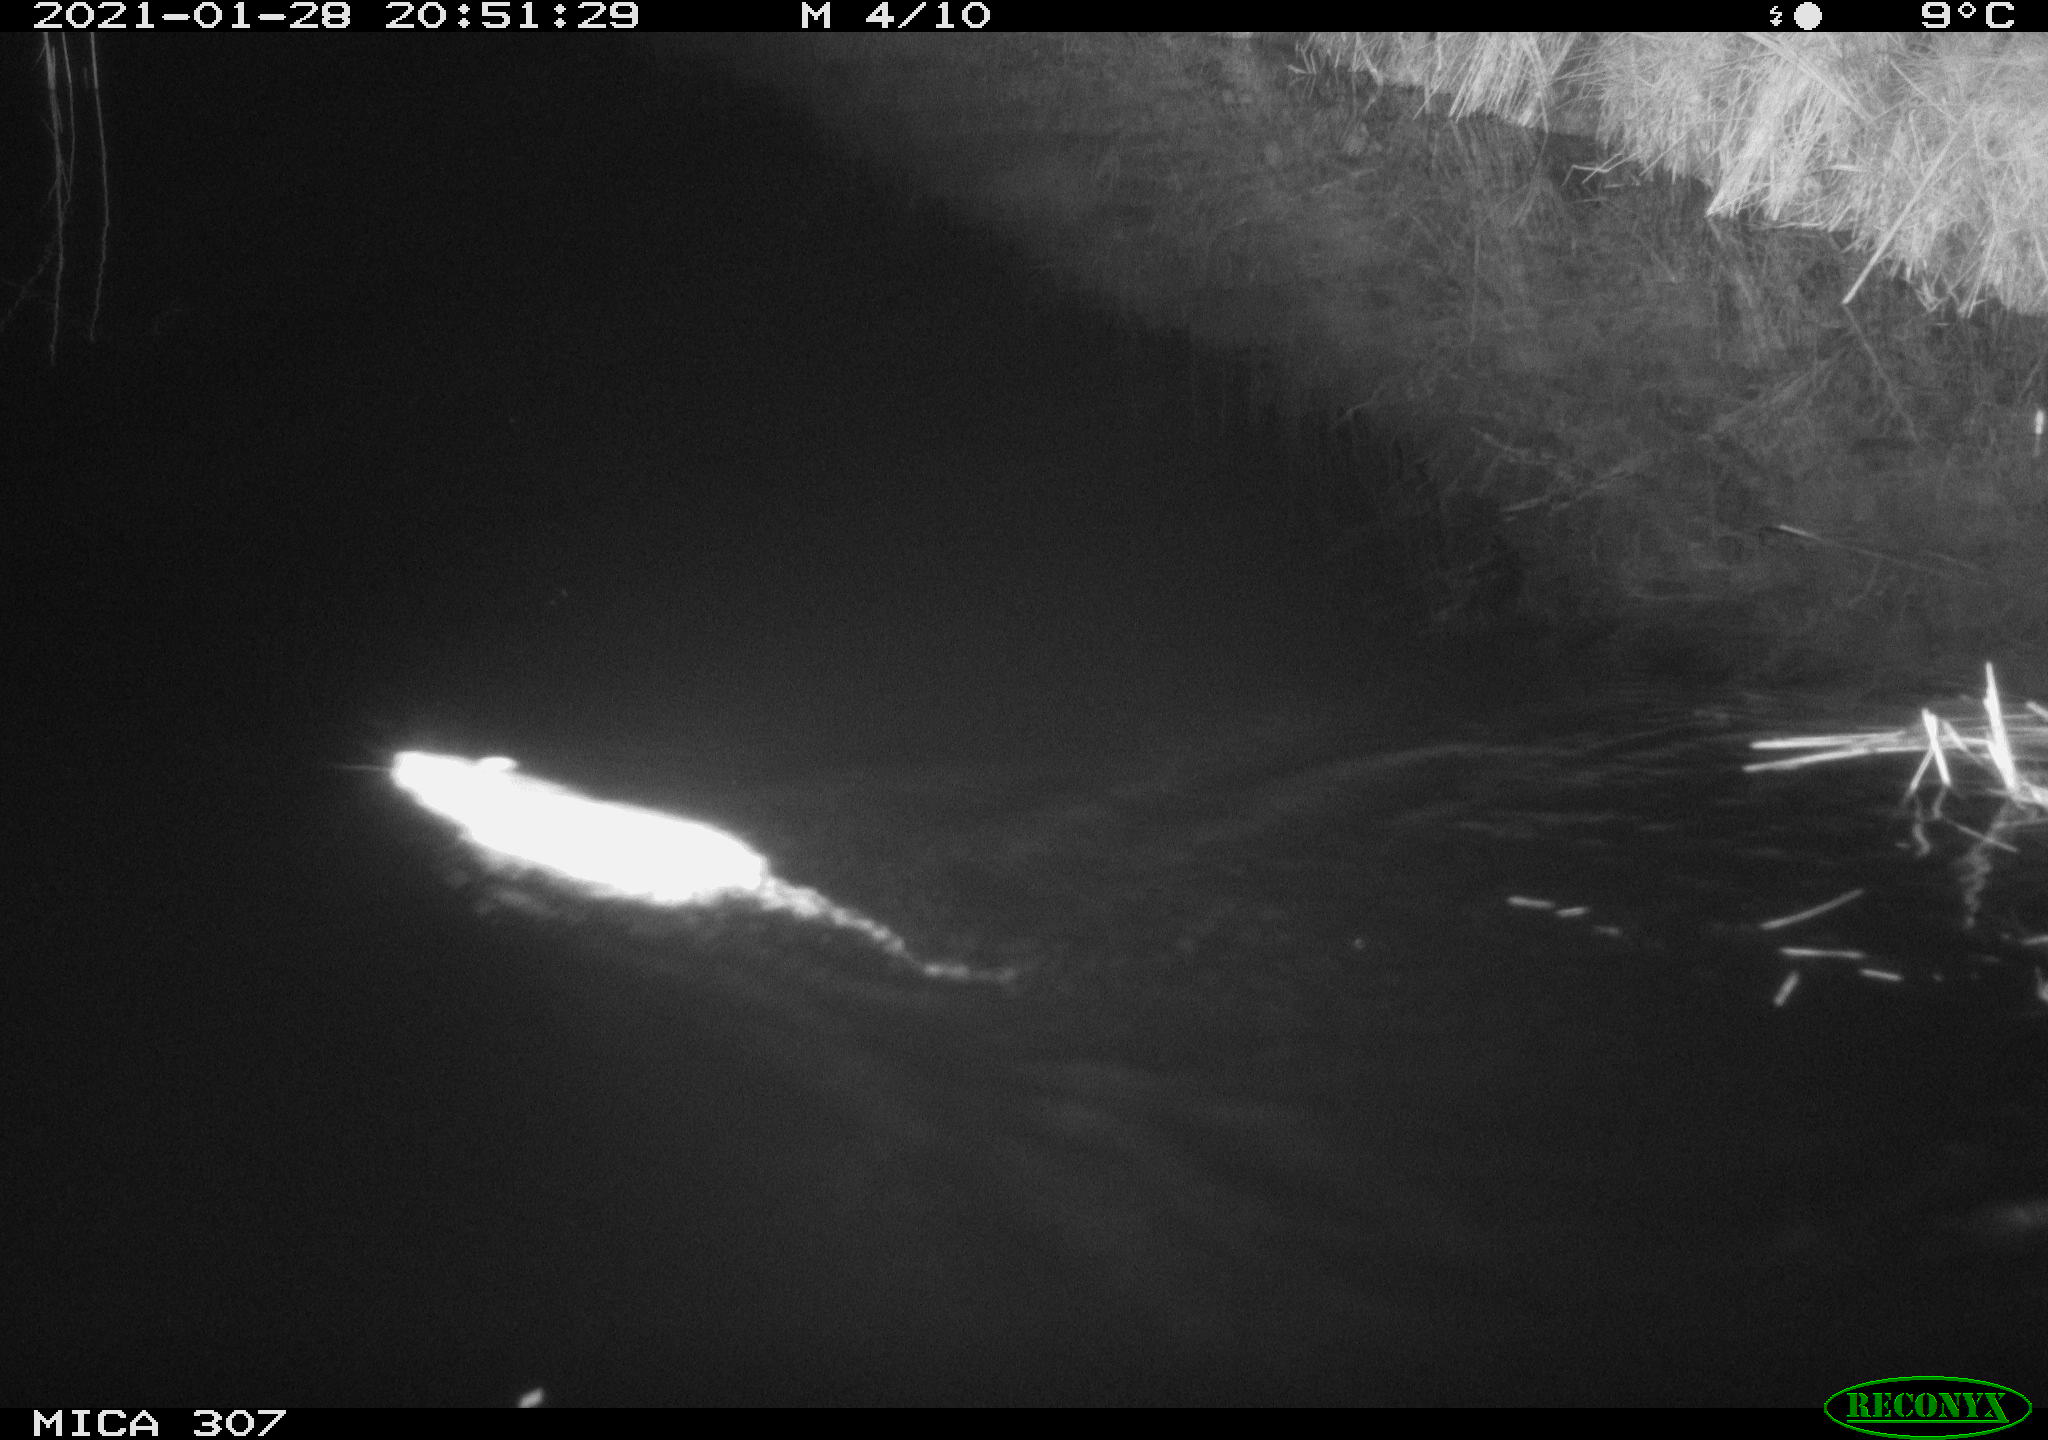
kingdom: Animalia
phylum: Chordata
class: Mammalia
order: Rodentia
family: Muridae
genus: Rattus
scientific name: Rattus norvegicus
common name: Brown rat
